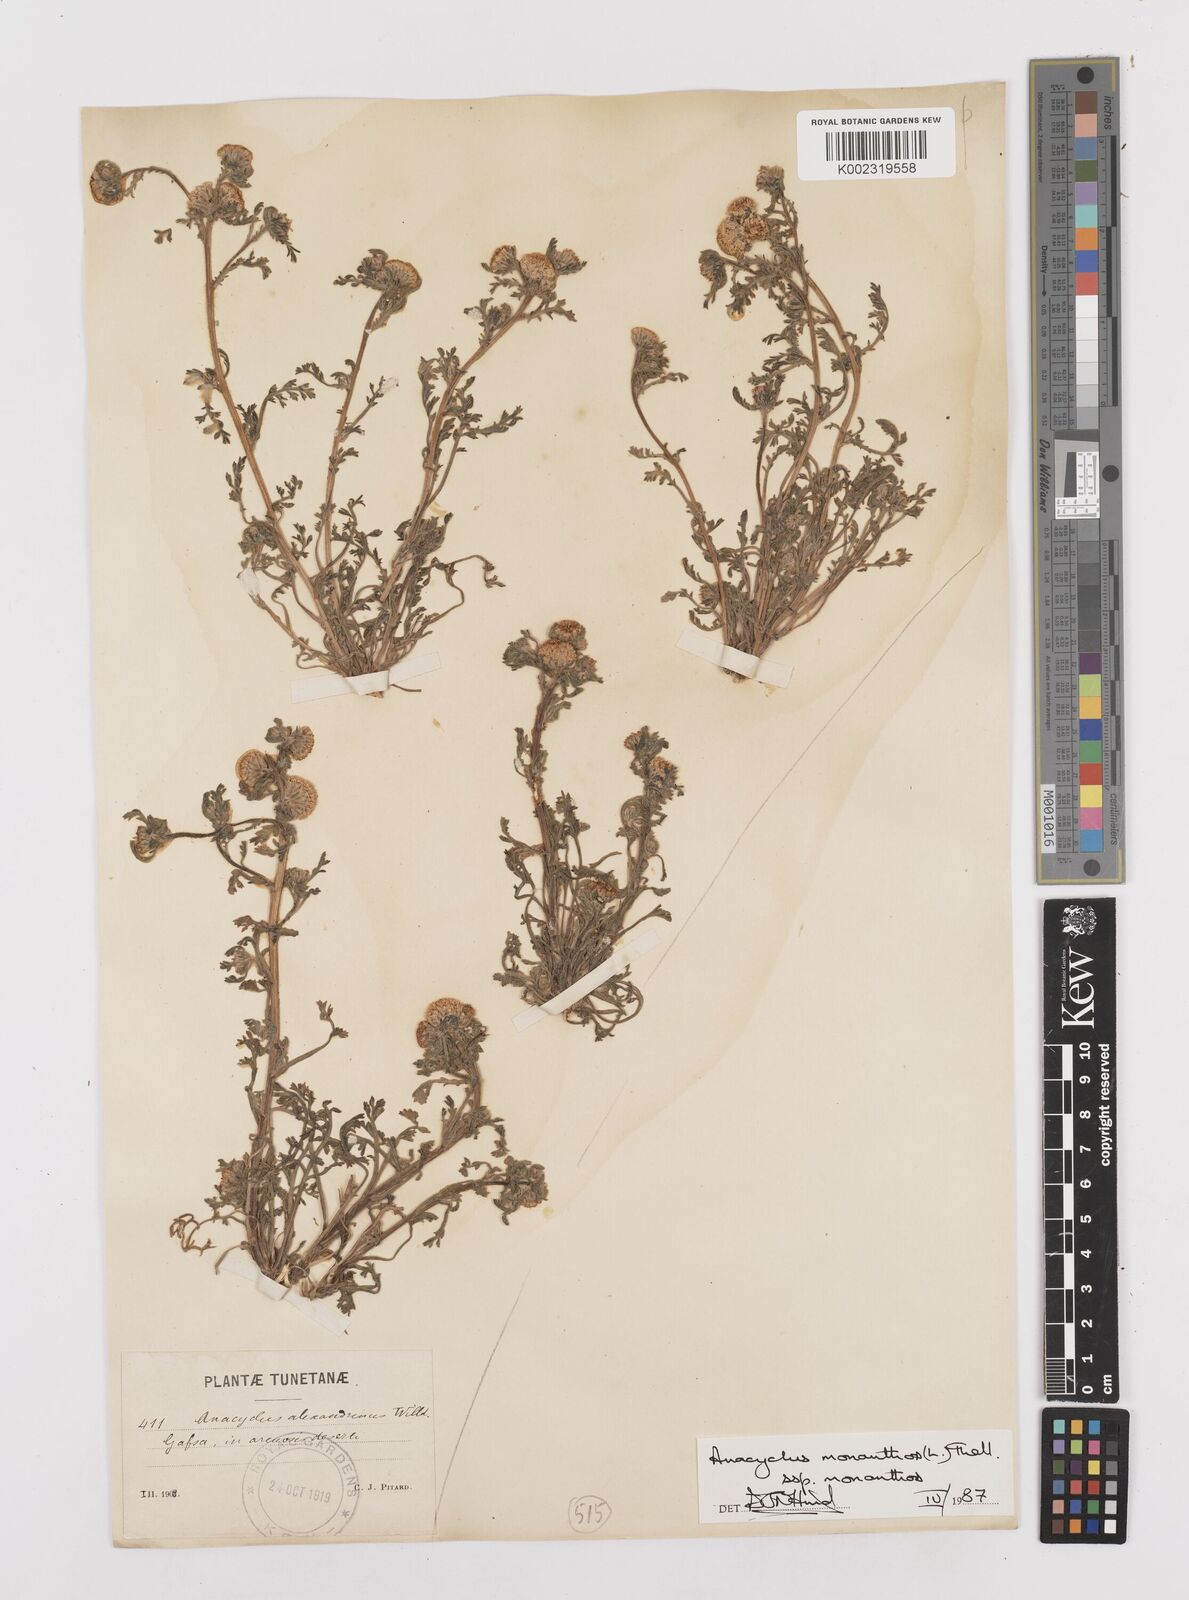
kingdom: Plantae
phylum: Tracheophyta
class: Magnoliopsida
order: Asterales
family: Asteraceae
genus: Anacyclus
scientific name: Anacyclus monanthos
